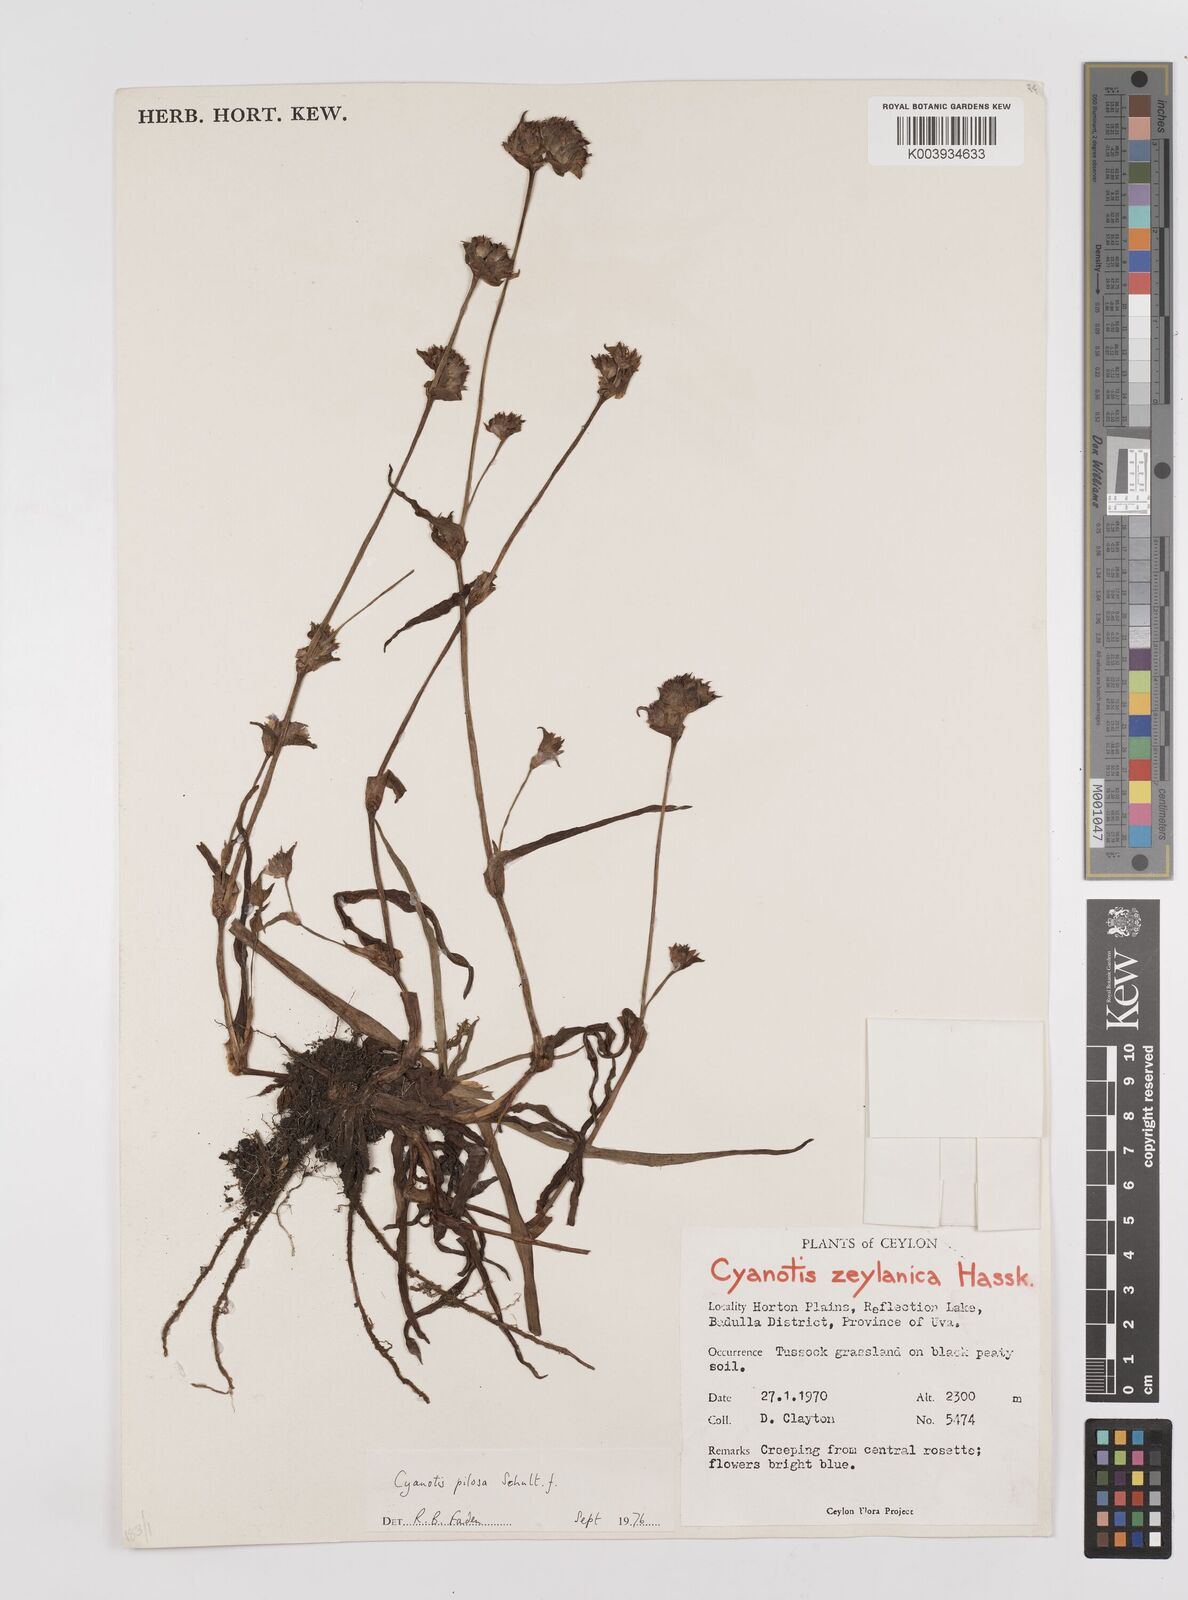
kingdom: Plantae
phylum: Tracheophyta
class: Liliopsida
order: Commelinales
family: Commelinaceae
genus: Cyanotis
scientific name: Cyanotis pilosa
